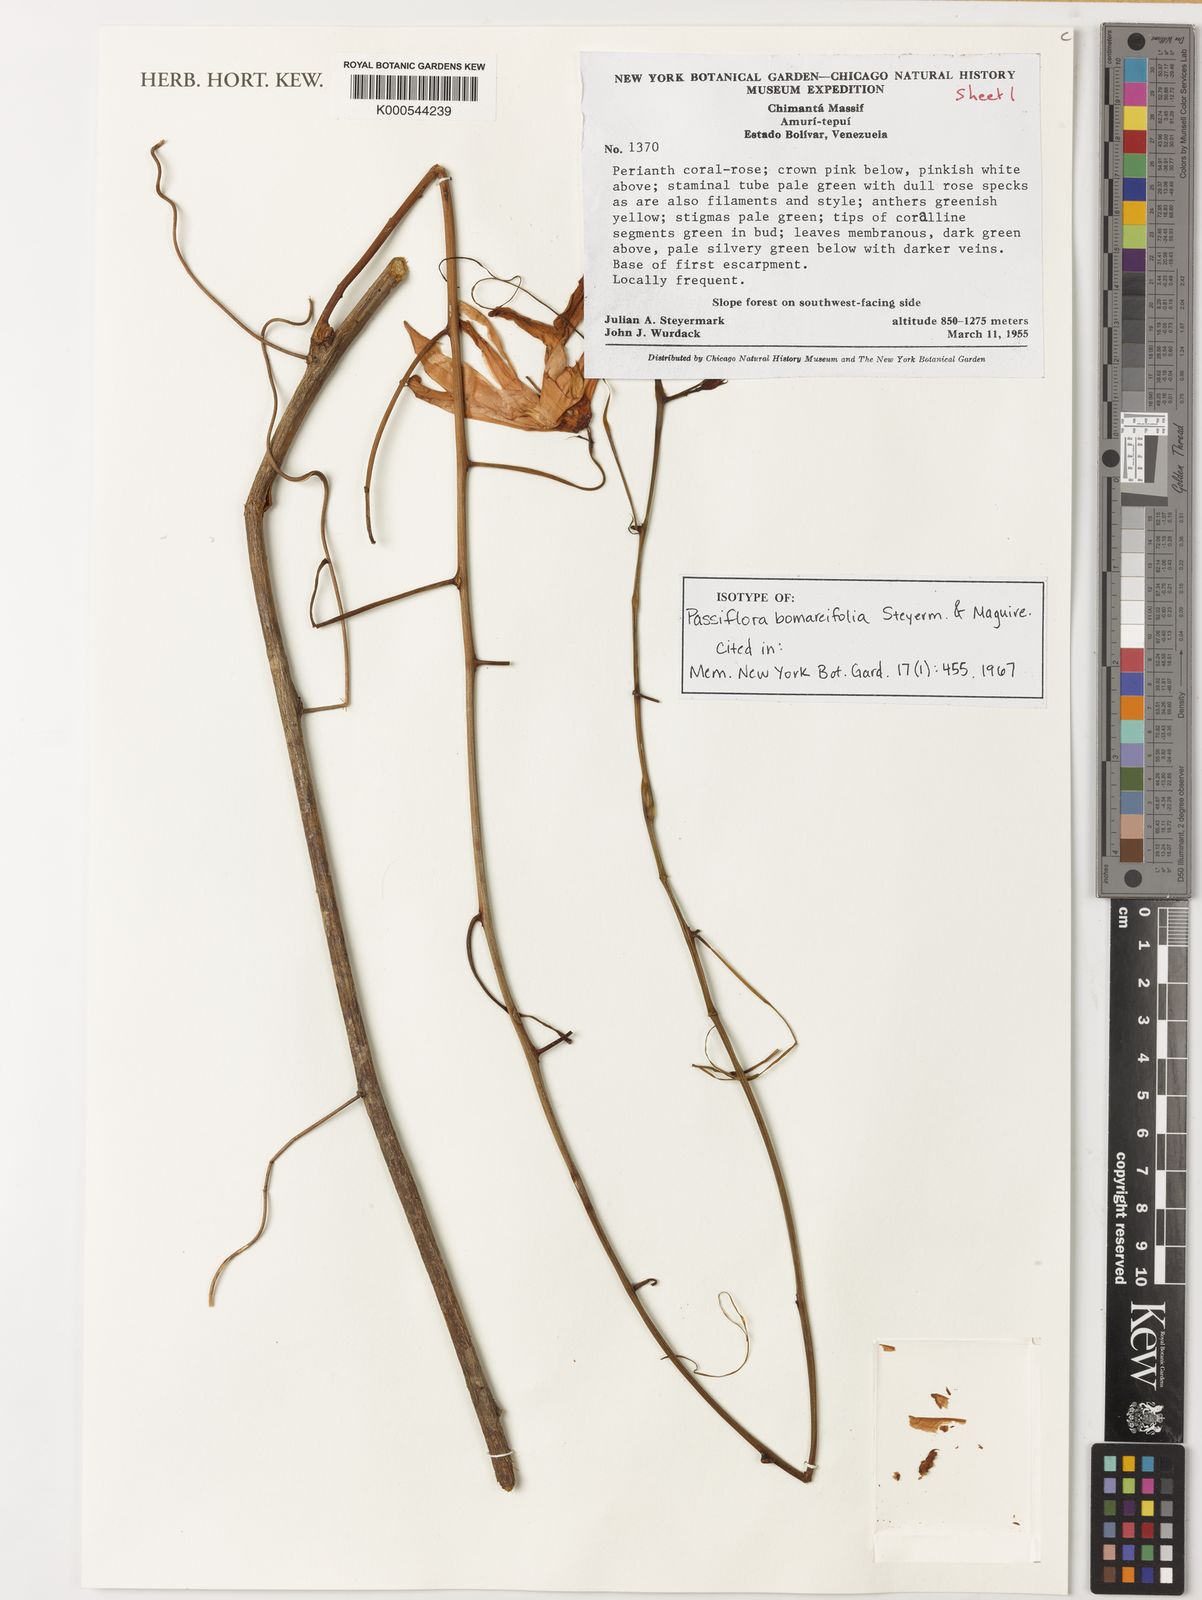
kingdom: Plantae
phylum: Tracheophyta
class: Magnoliopsida
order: Malpighiales
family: Passifloraceae
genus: Passiflora
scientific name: Passiflora variolata
